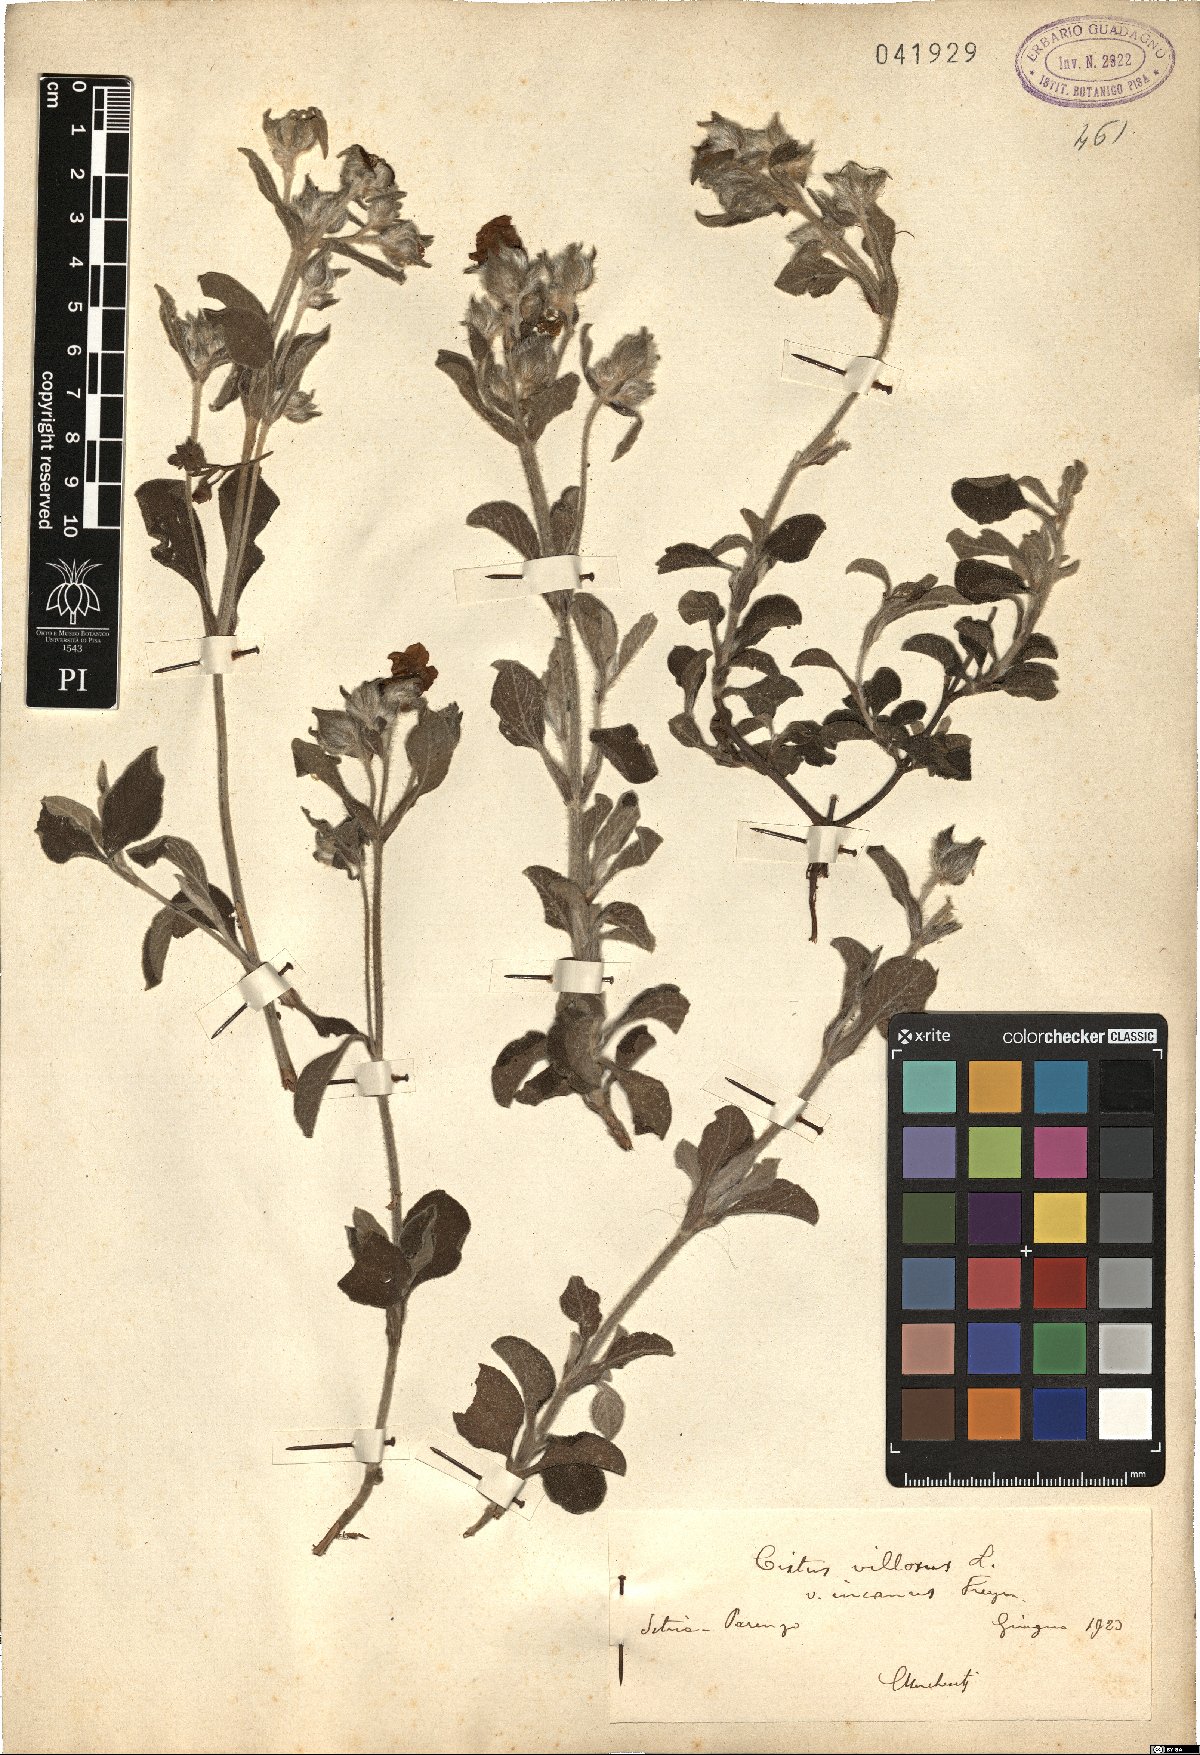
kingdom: Plantae
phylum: Tracheophyta
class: Magnoliopsida
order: Malvales
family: Cistaceae
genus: Cistus
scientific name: Cistus incanus
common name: Hairy rockrose
